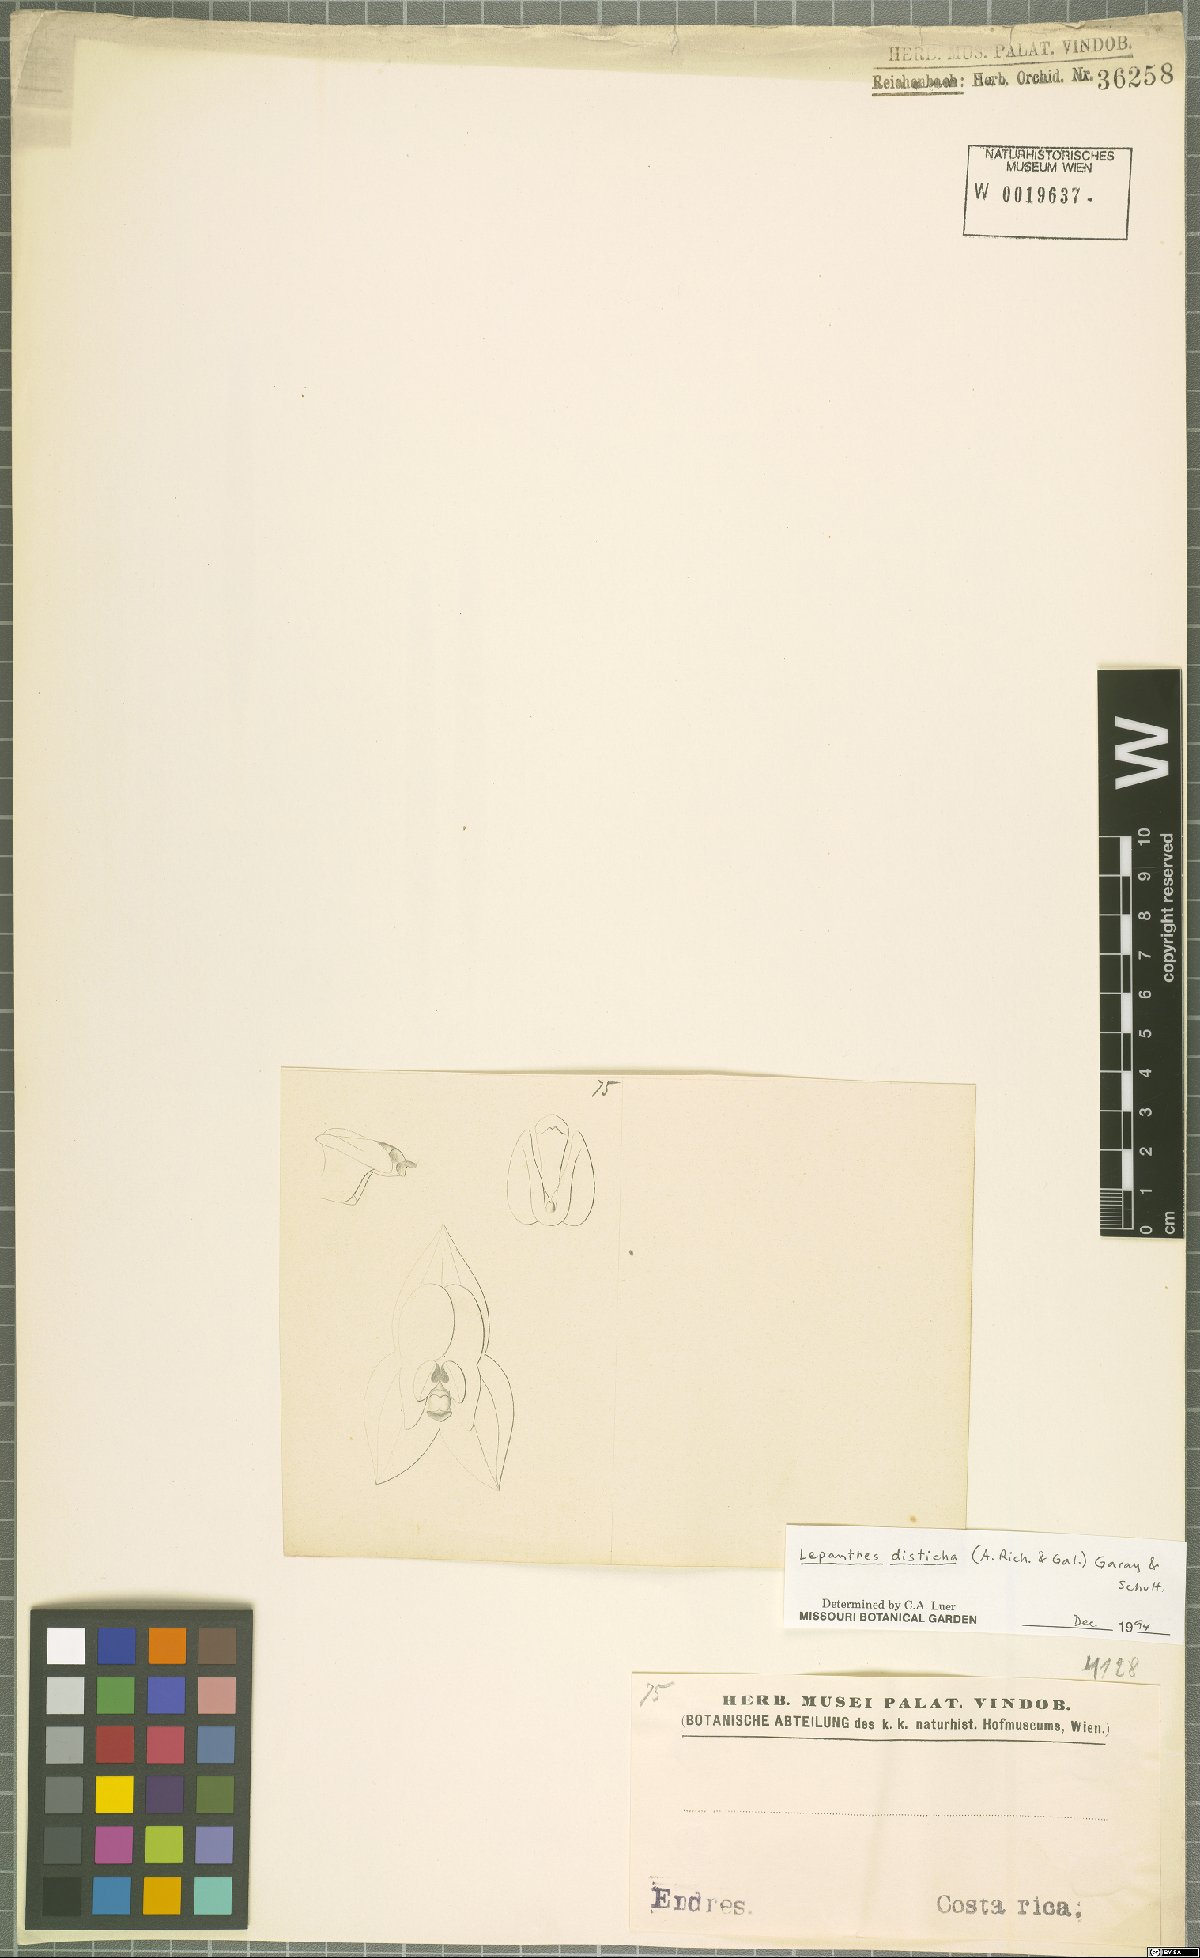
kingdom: Plantae
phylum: Tracheophyta
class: Liliopsida
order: Asparagales
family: Orchidaceae
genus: Lepanthes
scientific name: Lepanthes disticha
